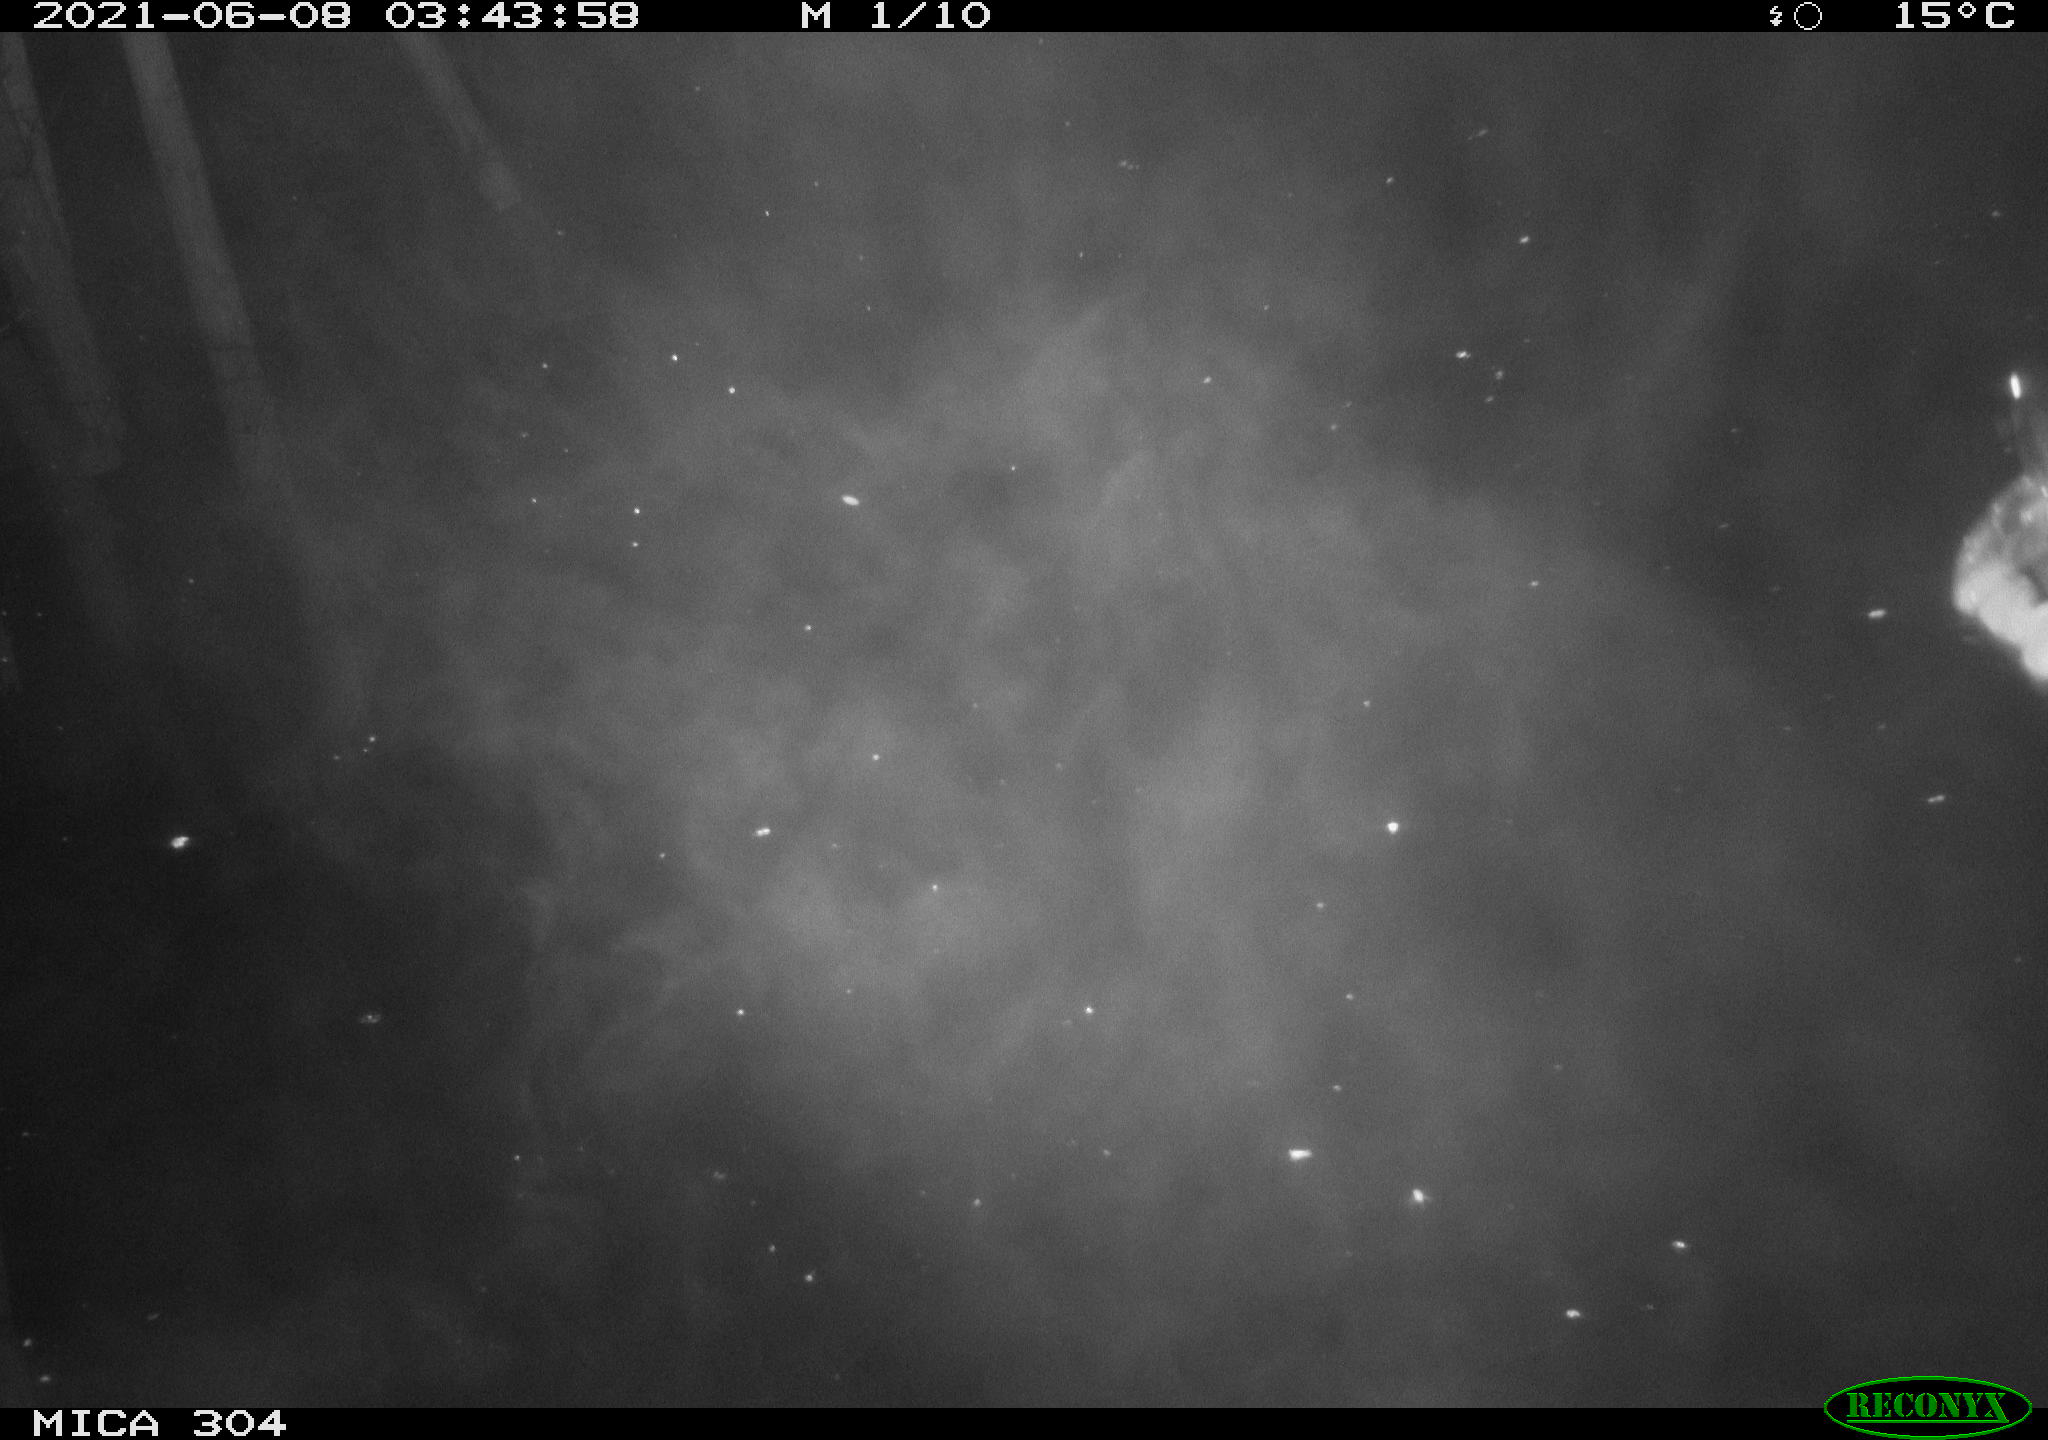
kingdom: Animalia
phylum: Chordata
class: Aves
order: Anseriformes
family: Anatidae
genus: Anas
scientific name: Anas platyrhynchos
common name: Mallard
